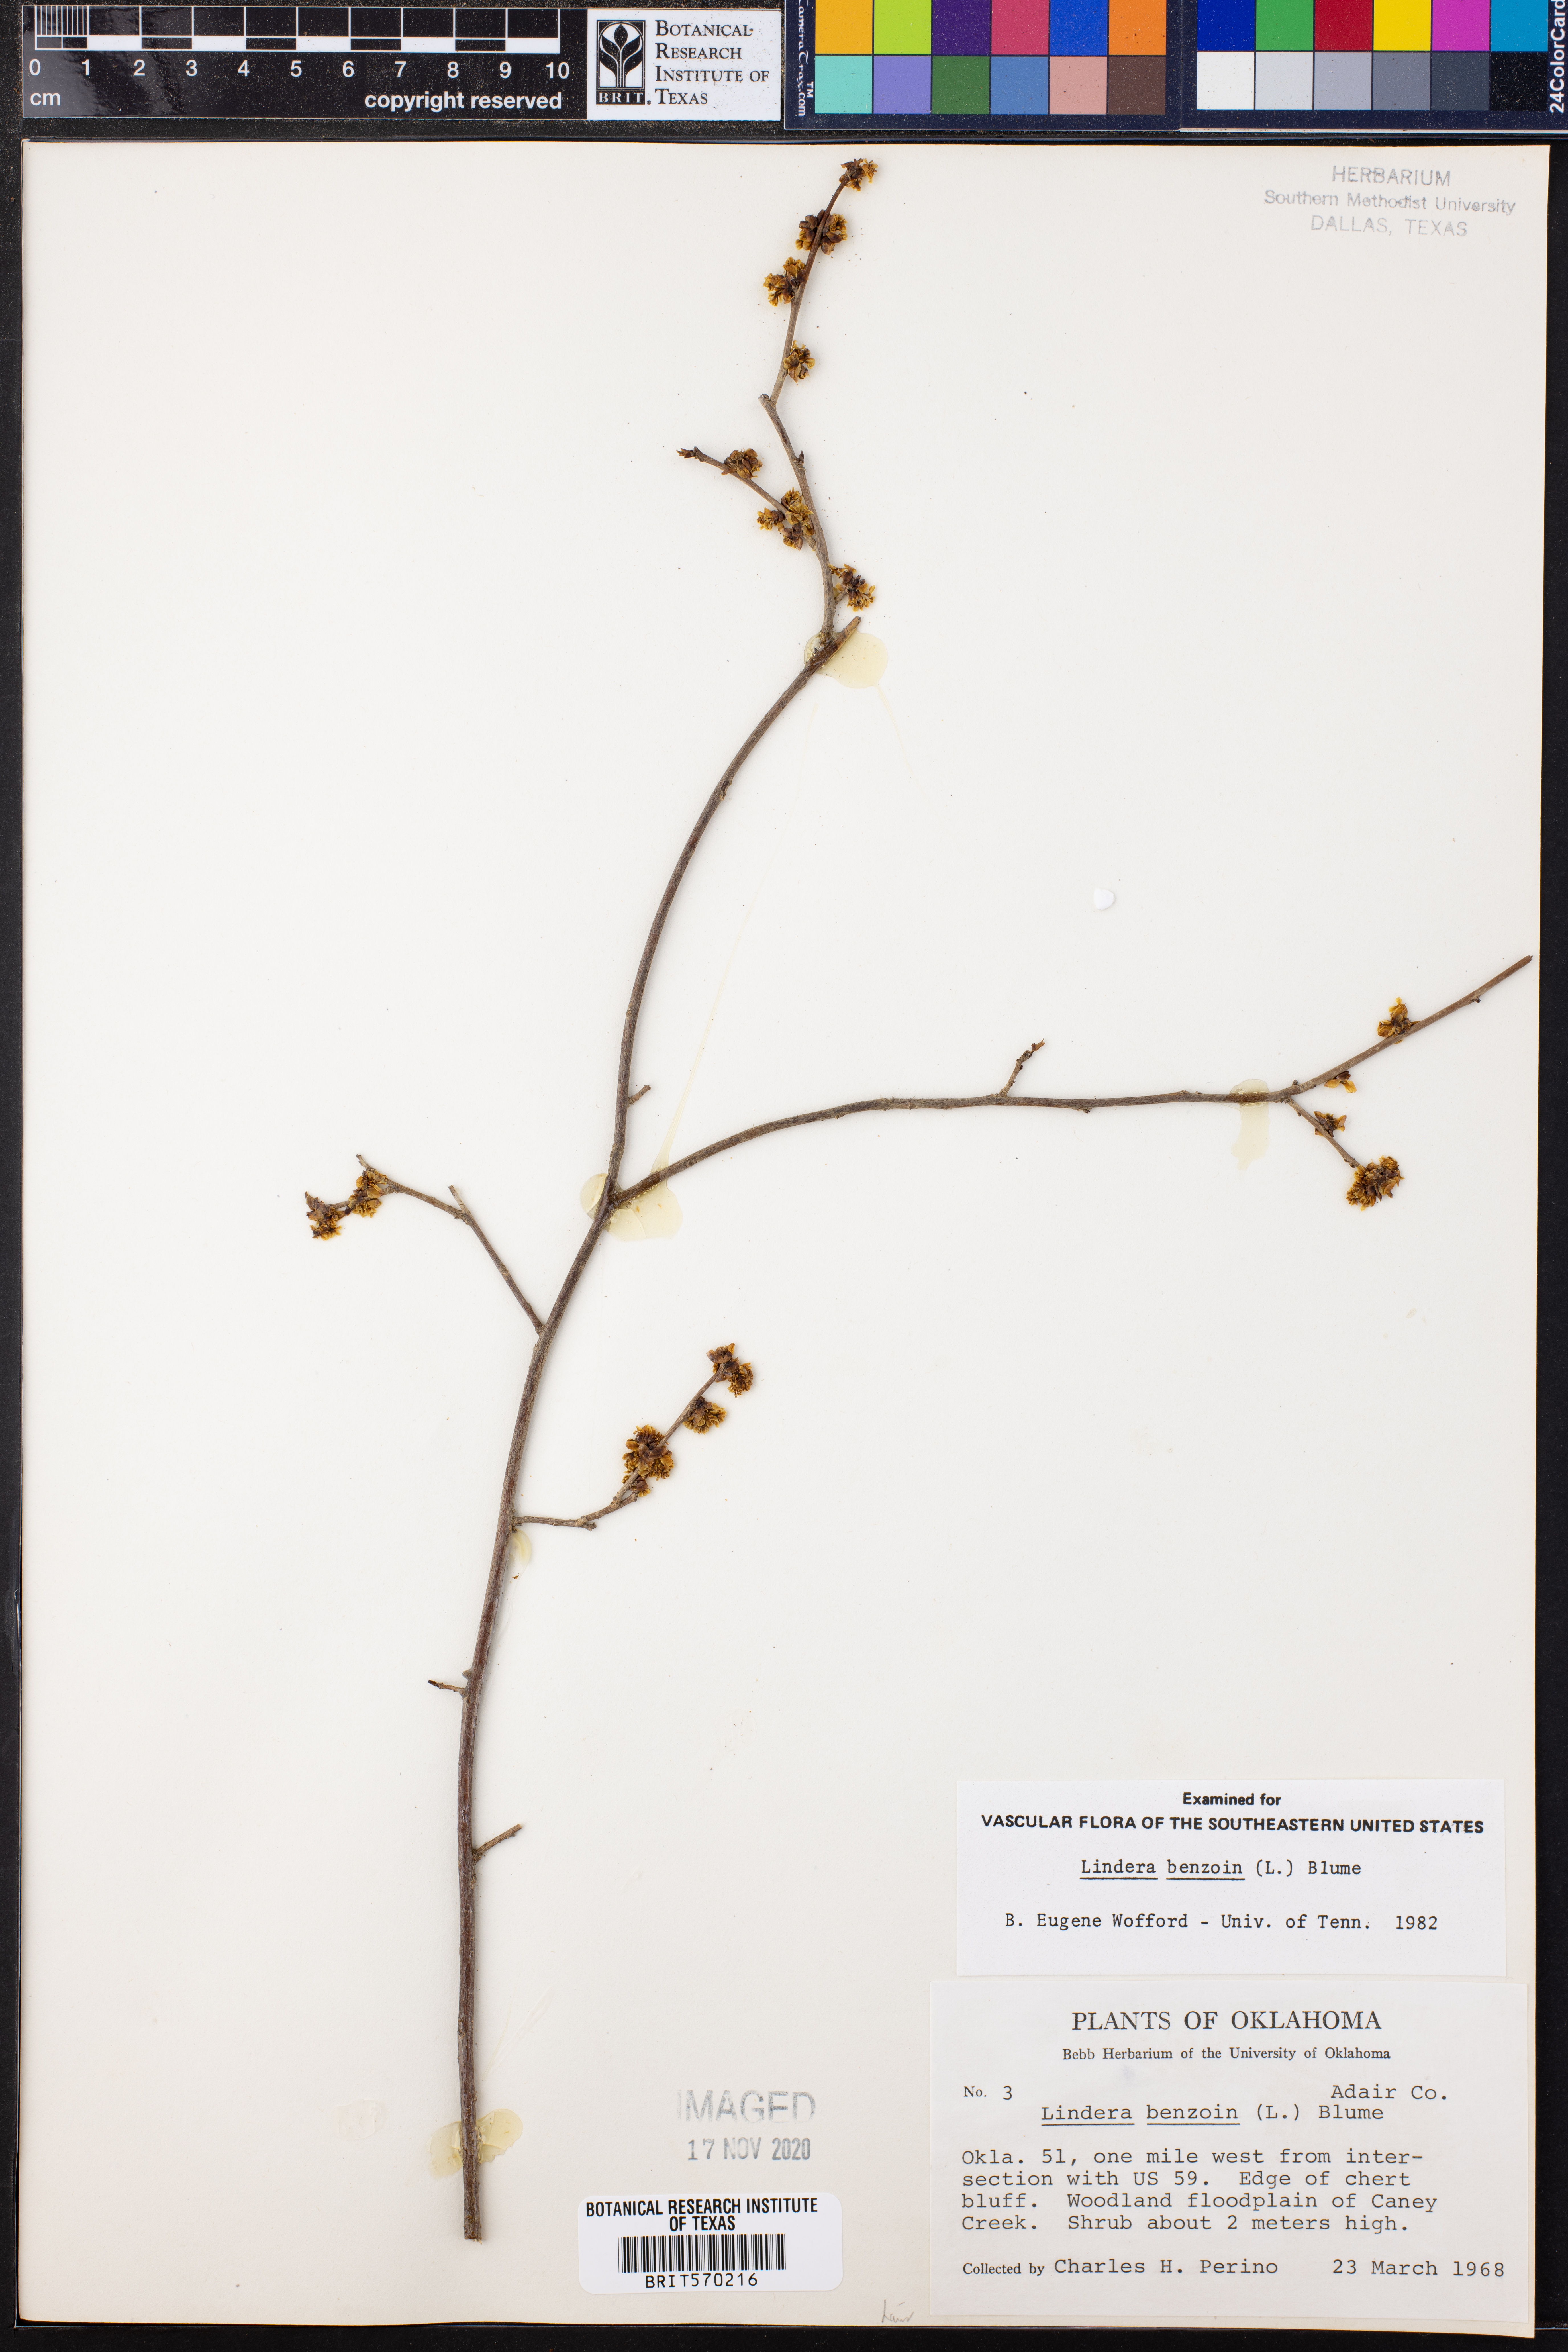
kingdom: Plantae
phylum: Tracheophyta
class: Magnoliopsida
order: Laurales
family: Lauraceae
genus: Lindera
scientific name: Lindera benzoin
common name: Spicebush
